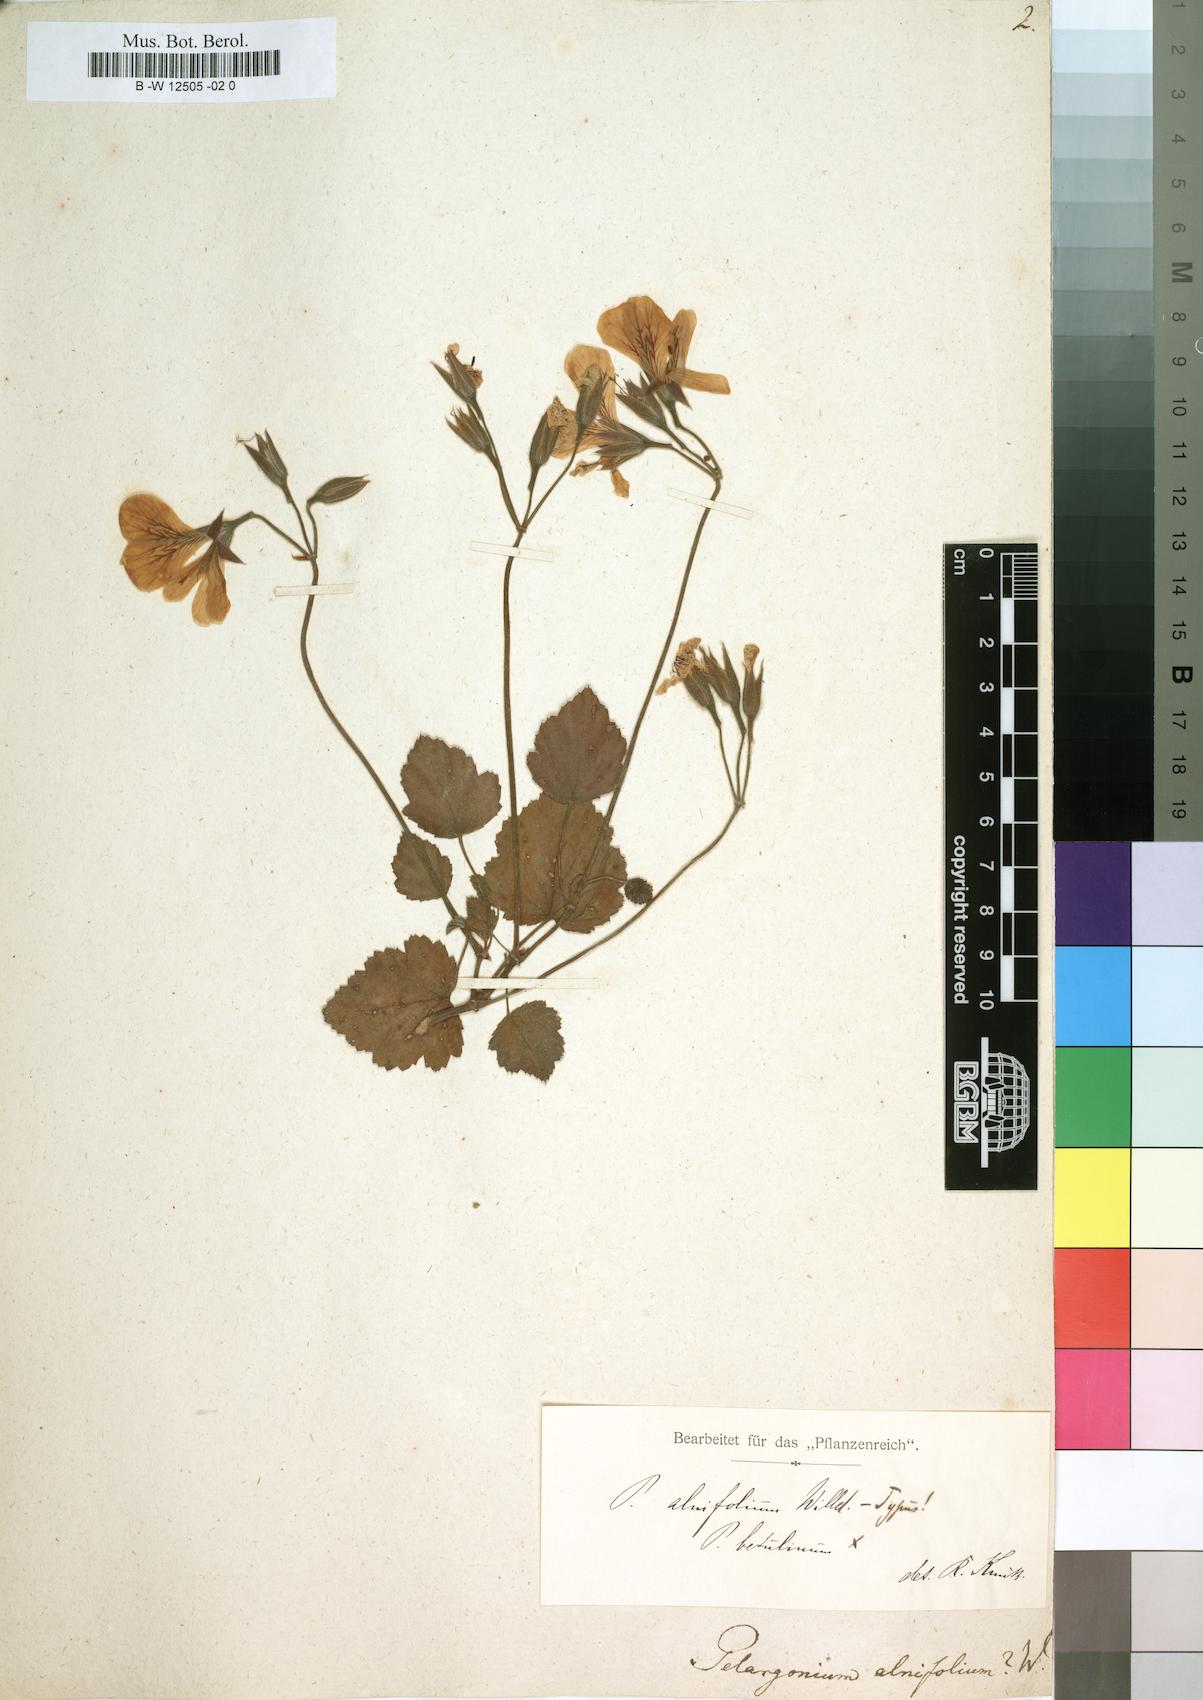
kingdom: Plantae
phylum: Tracheophyta
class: Magnoliopsida
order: Geraniales
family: Geraniaceae
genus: Pelargonium
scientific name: Pelargonium alnifolium
